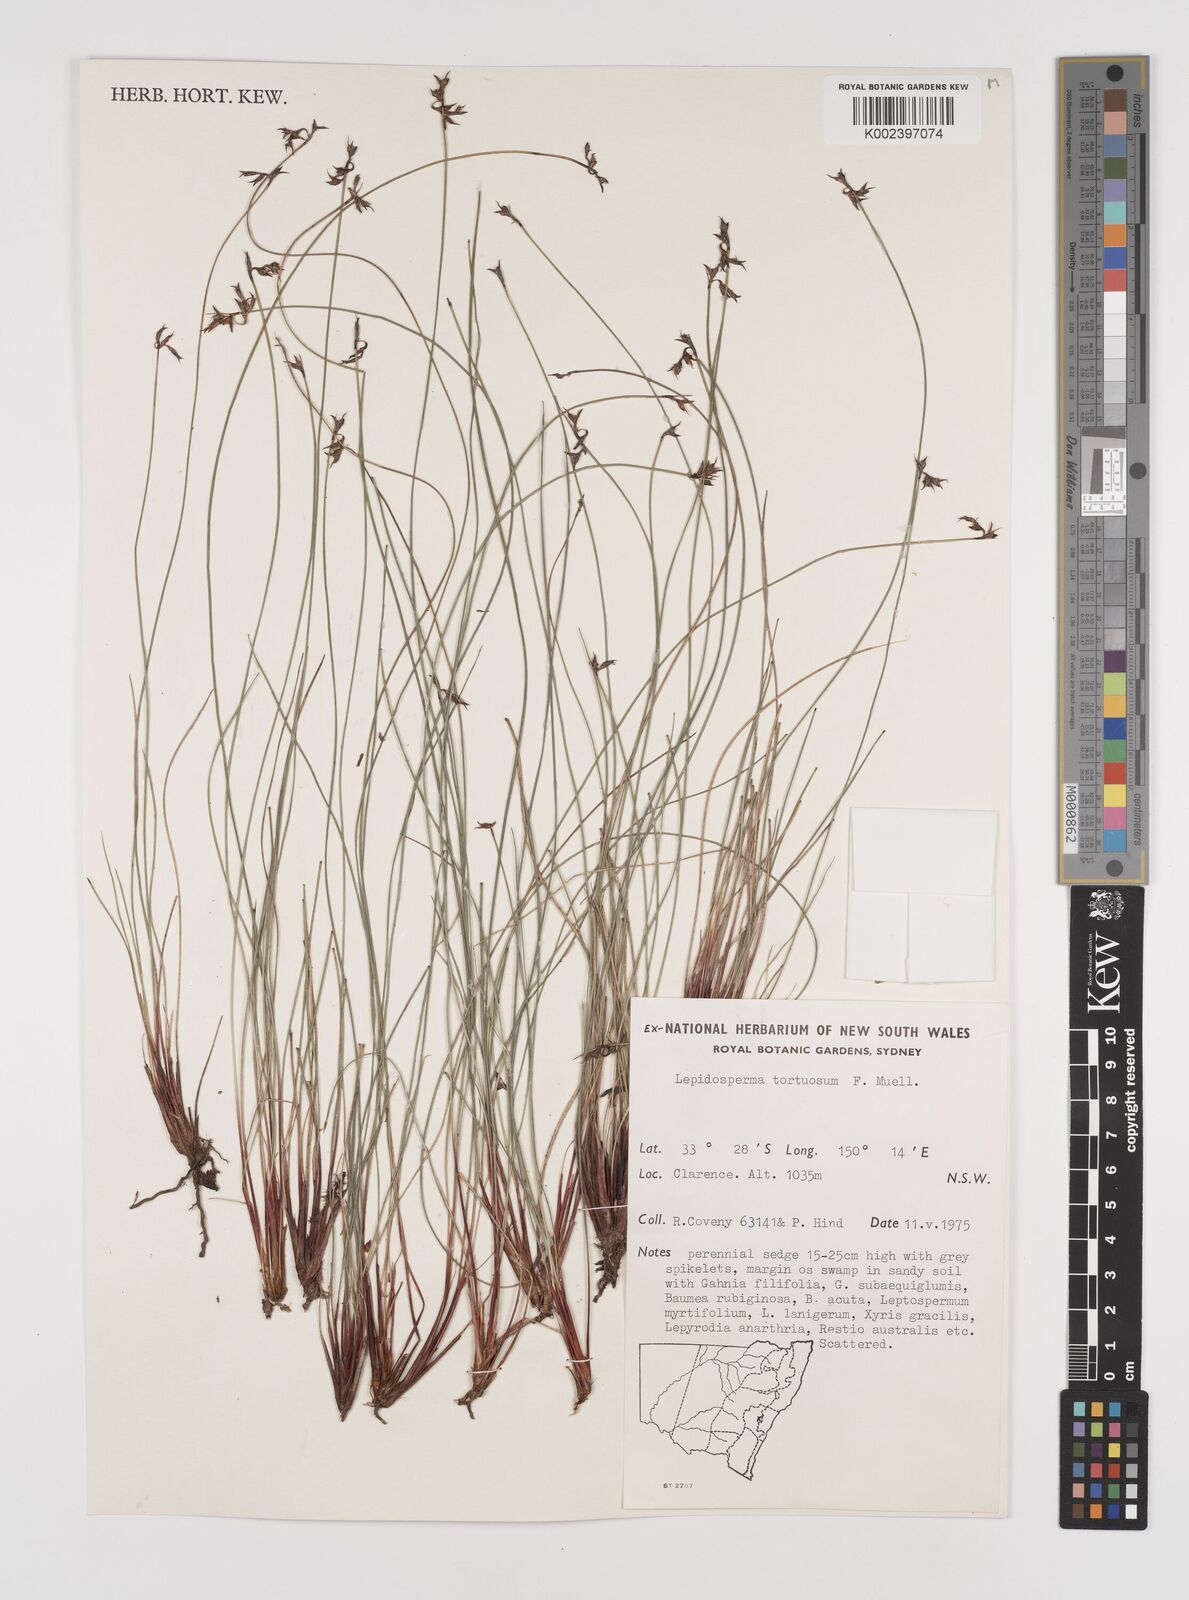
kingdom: Plantae
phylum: Tracheophyta
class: Liliopsida
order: Poales
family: Cyperaceae
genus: Lepidosperma
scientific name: Lepidosperma tortuosum
